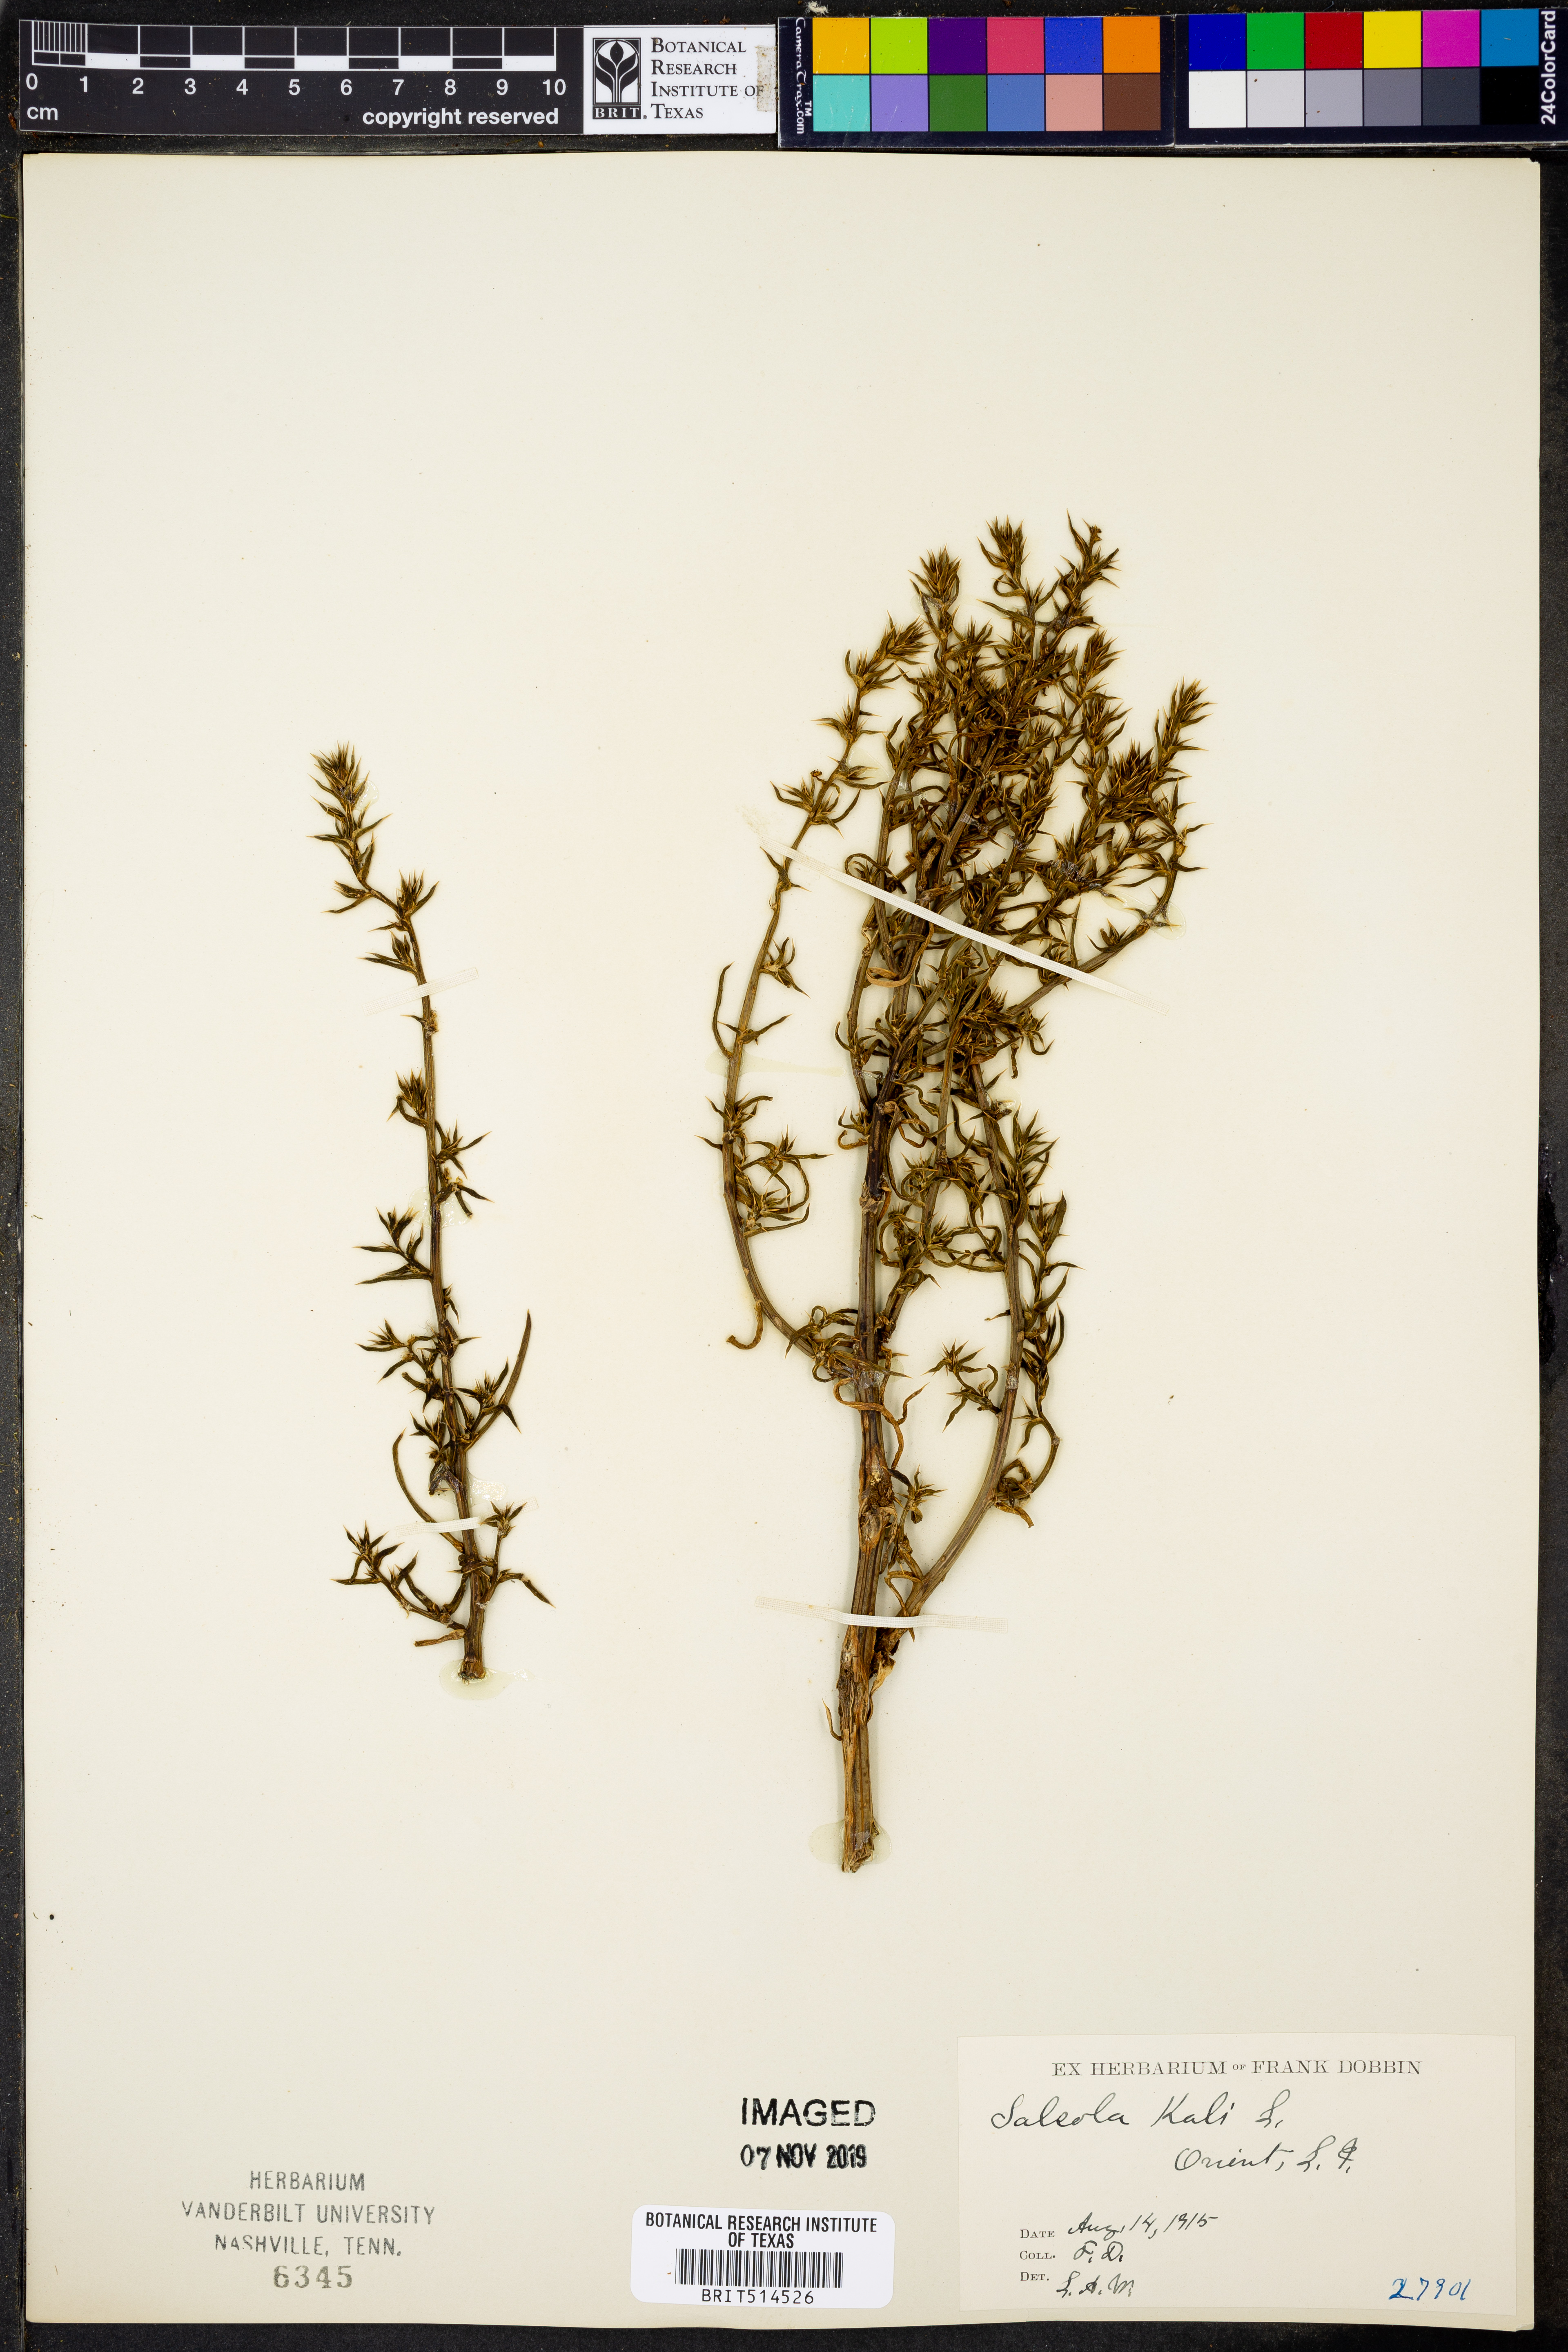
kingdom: Plantae
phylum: Tracheophyta
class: Magnoliopsida
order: Caryophyllales
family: Amaranthaceae
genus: Salsola
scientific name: Salsola kali
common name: Saltwort
